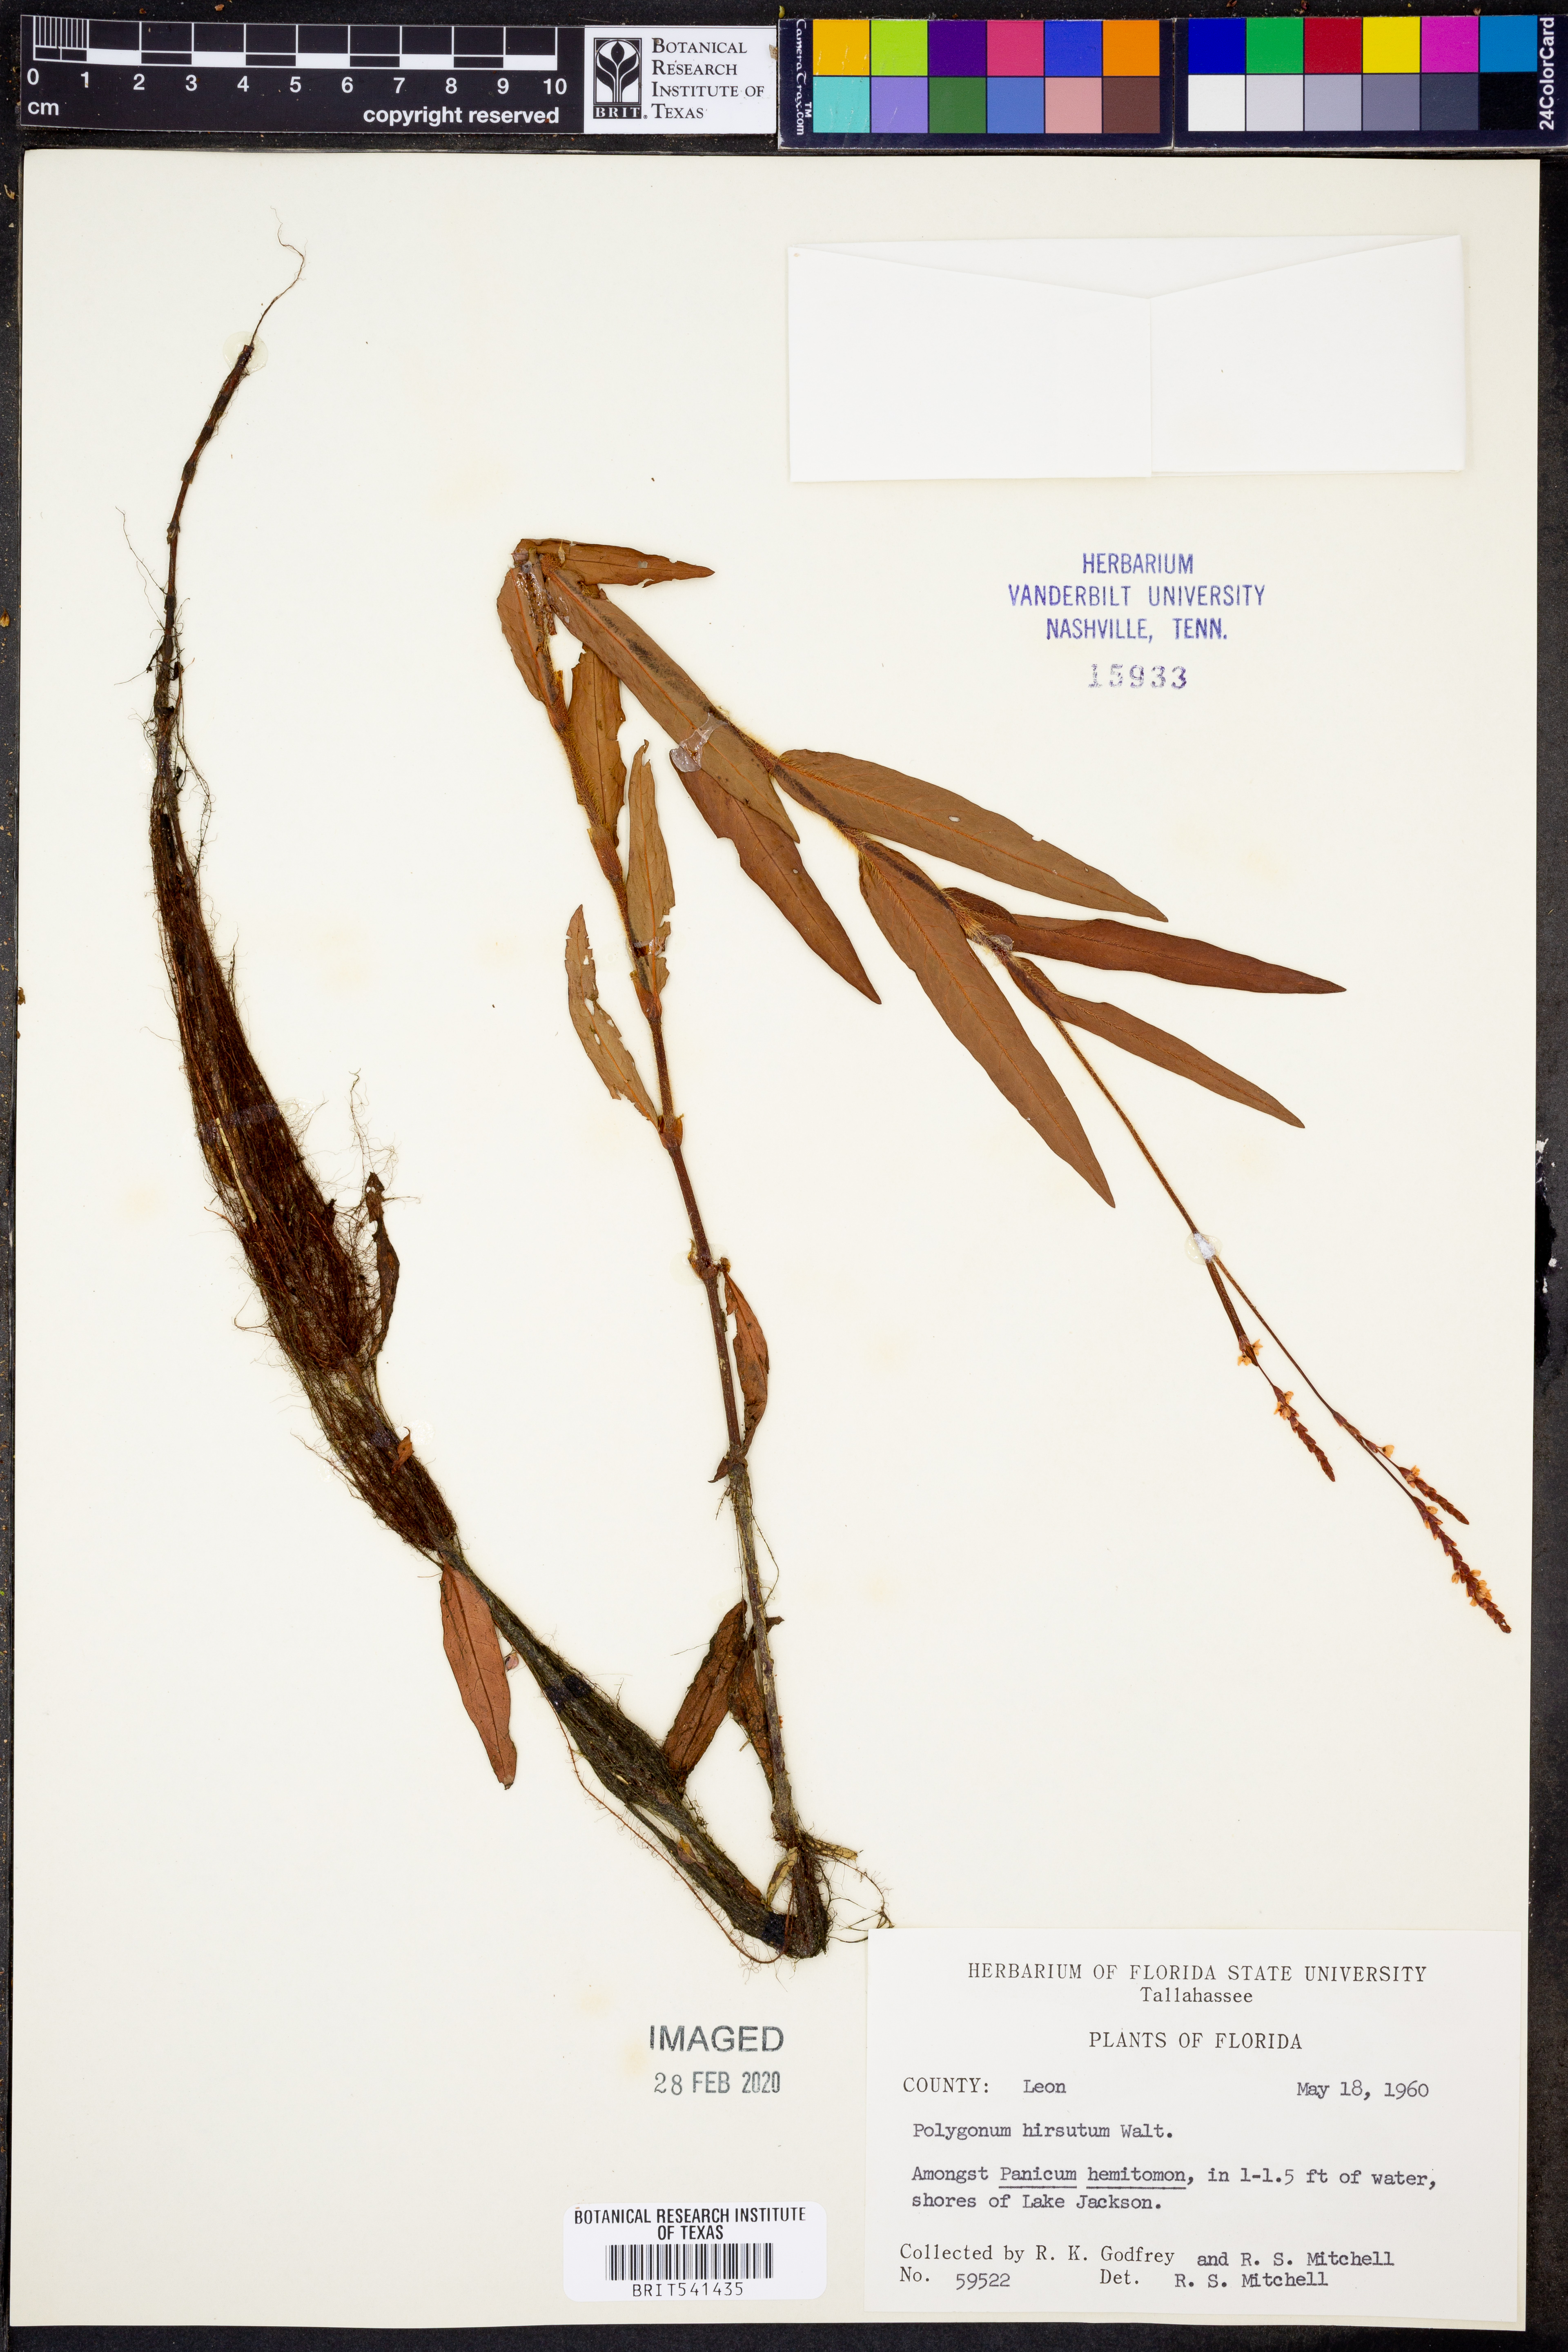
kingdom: Plantae
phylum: Tracheophyta
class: Magnoliopsida
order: Caryophyllales
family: Polygonaceae
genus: Persicaria
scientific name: Persicaria hirsuta
